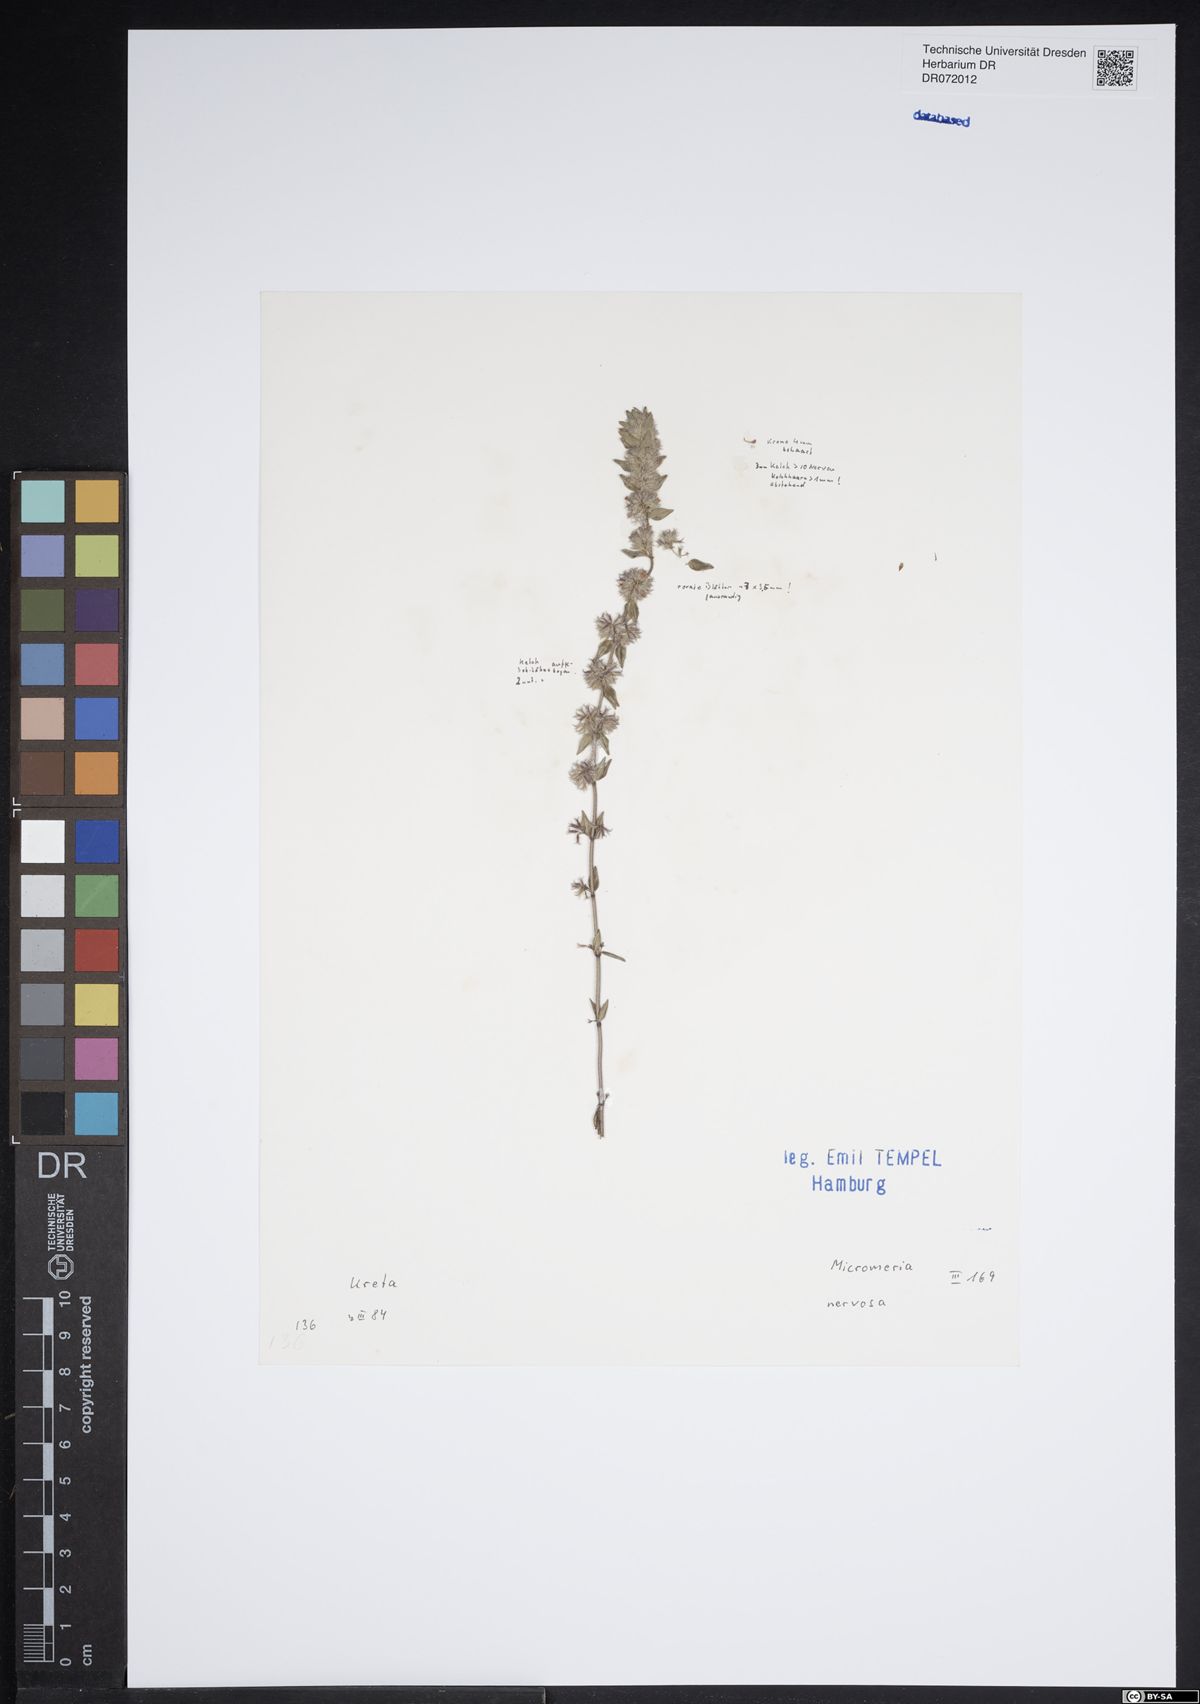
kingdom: Plantae
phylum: Tracheophyta
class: Magnoliopsida
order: Myrtales
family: Melastomataceae
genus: Microlicia
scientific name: Microlicia nervosa
